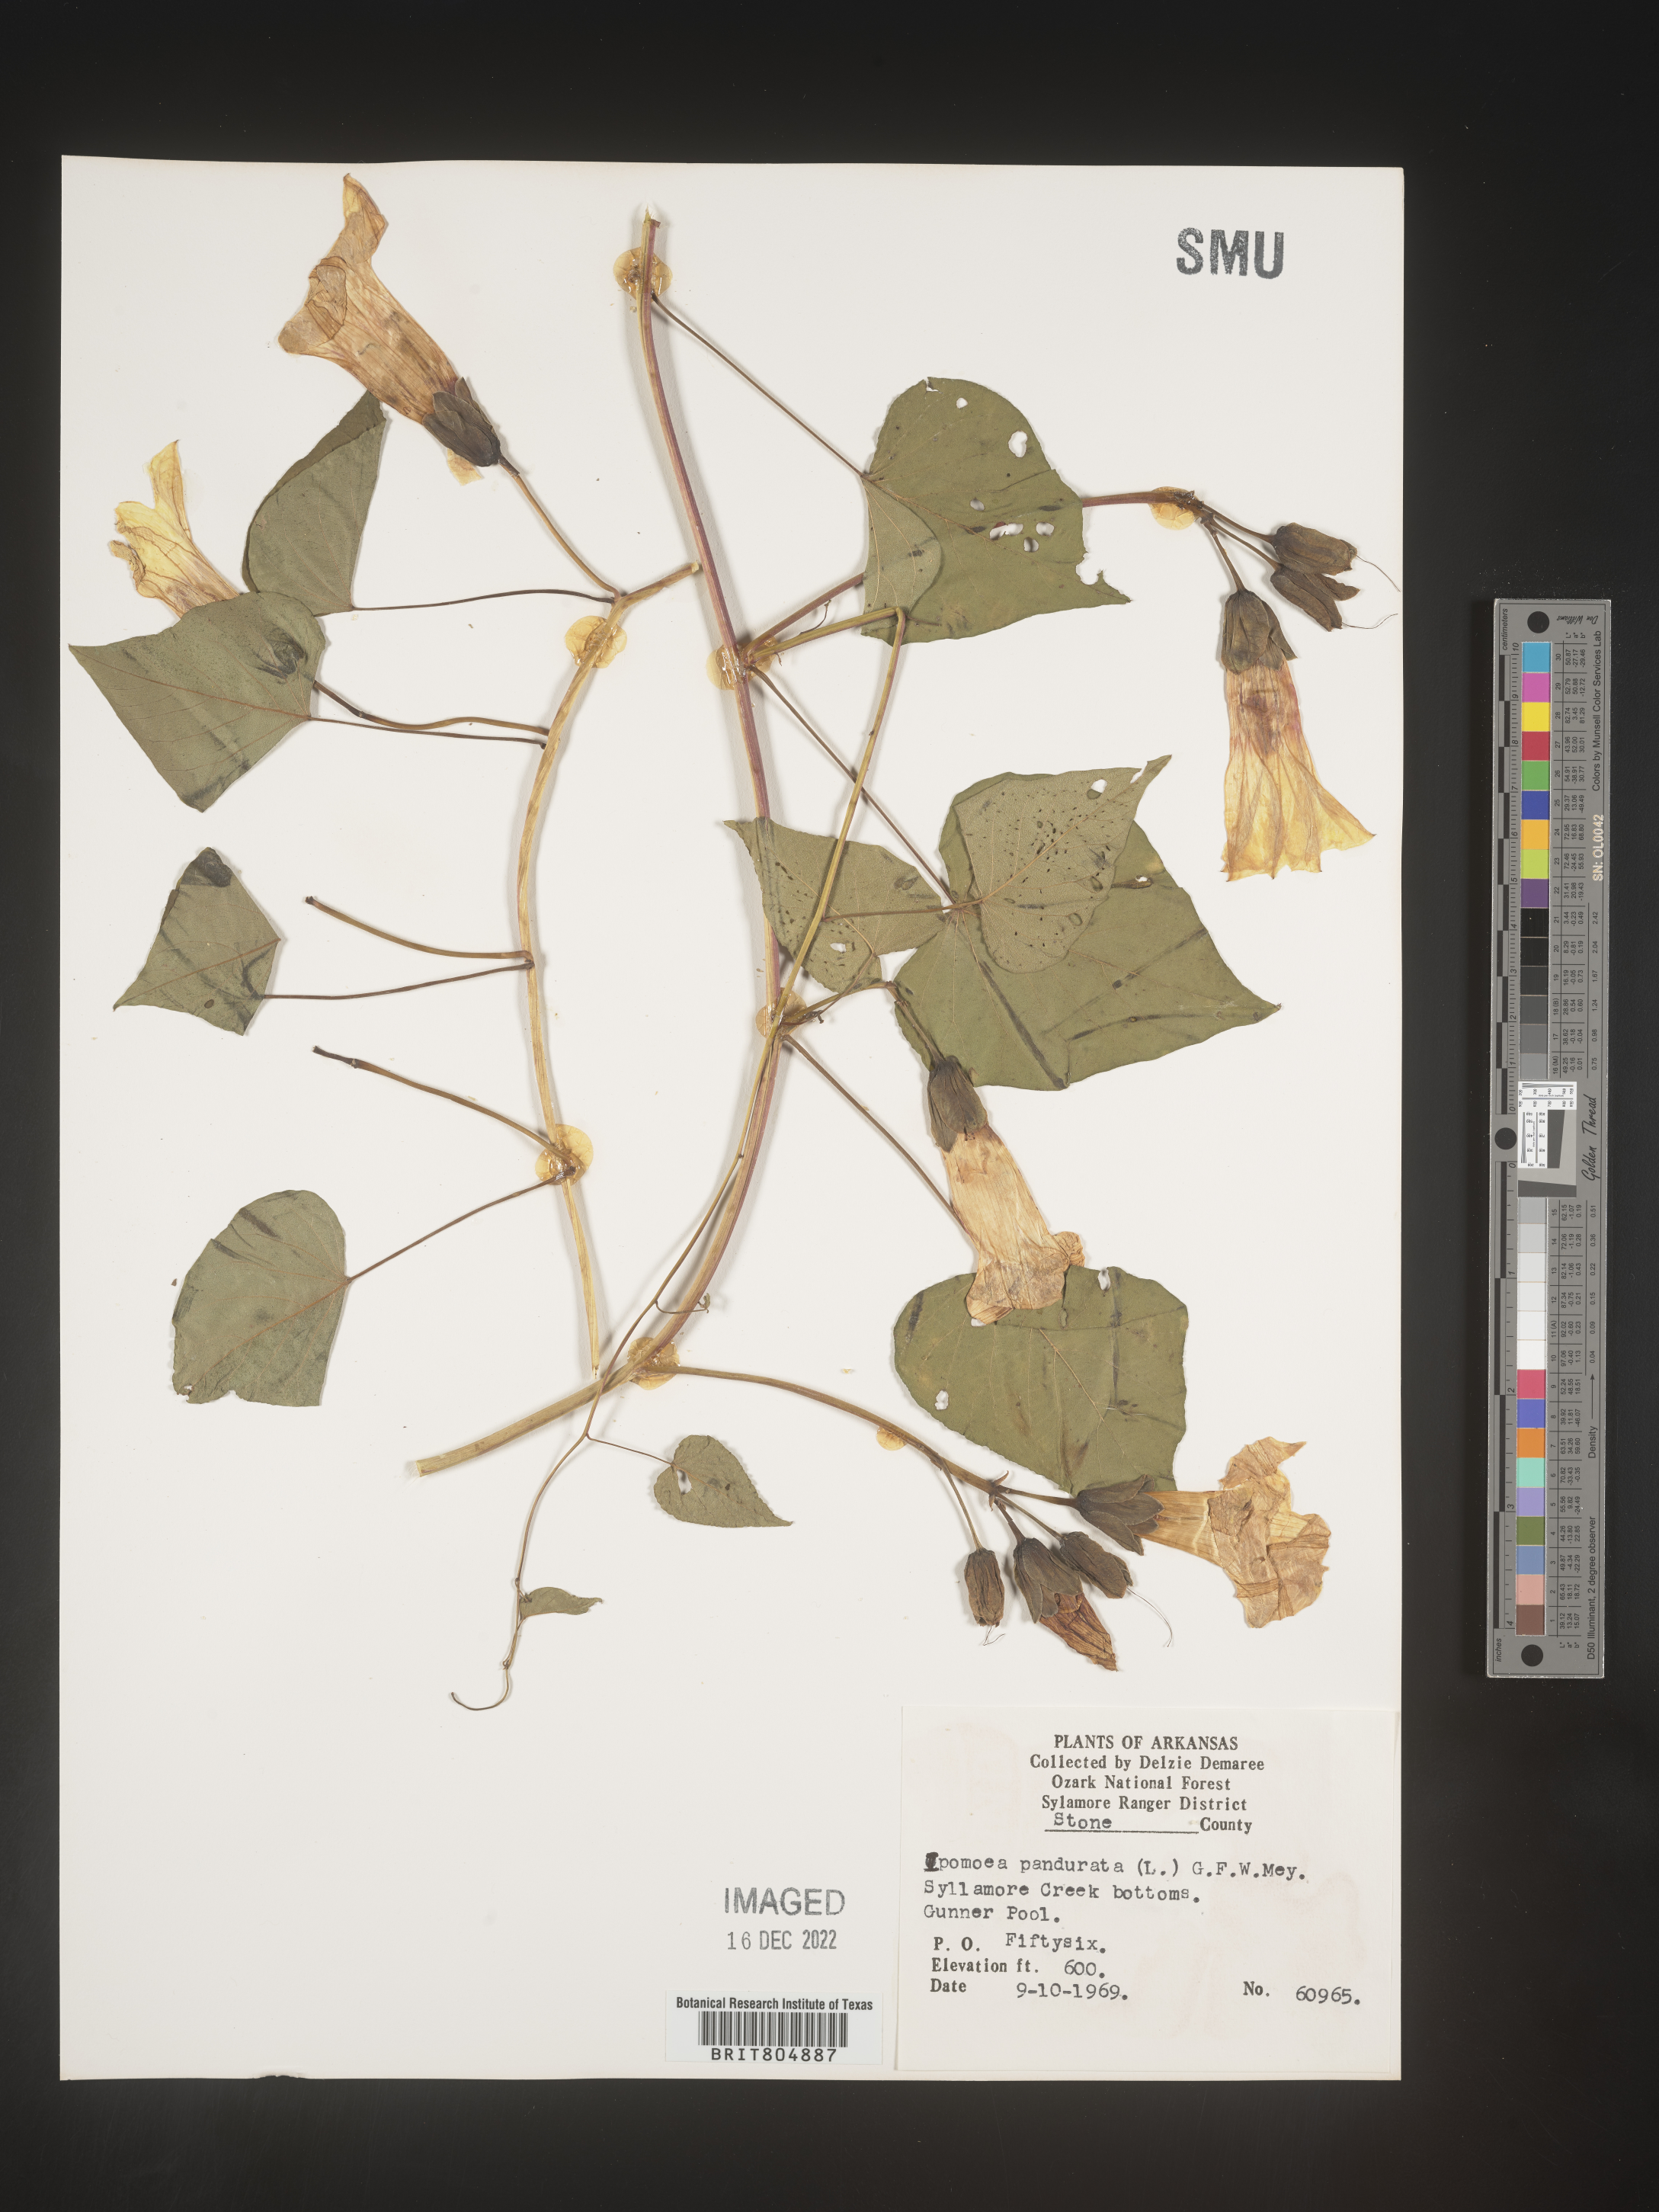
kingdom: Plantae
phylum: Tracheophyta
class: Magnoliopsida
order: Solanales
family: Convolvulaceae
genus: Ipomoea
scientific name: Ipomoea pandurata
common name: Man-of-the-earth
